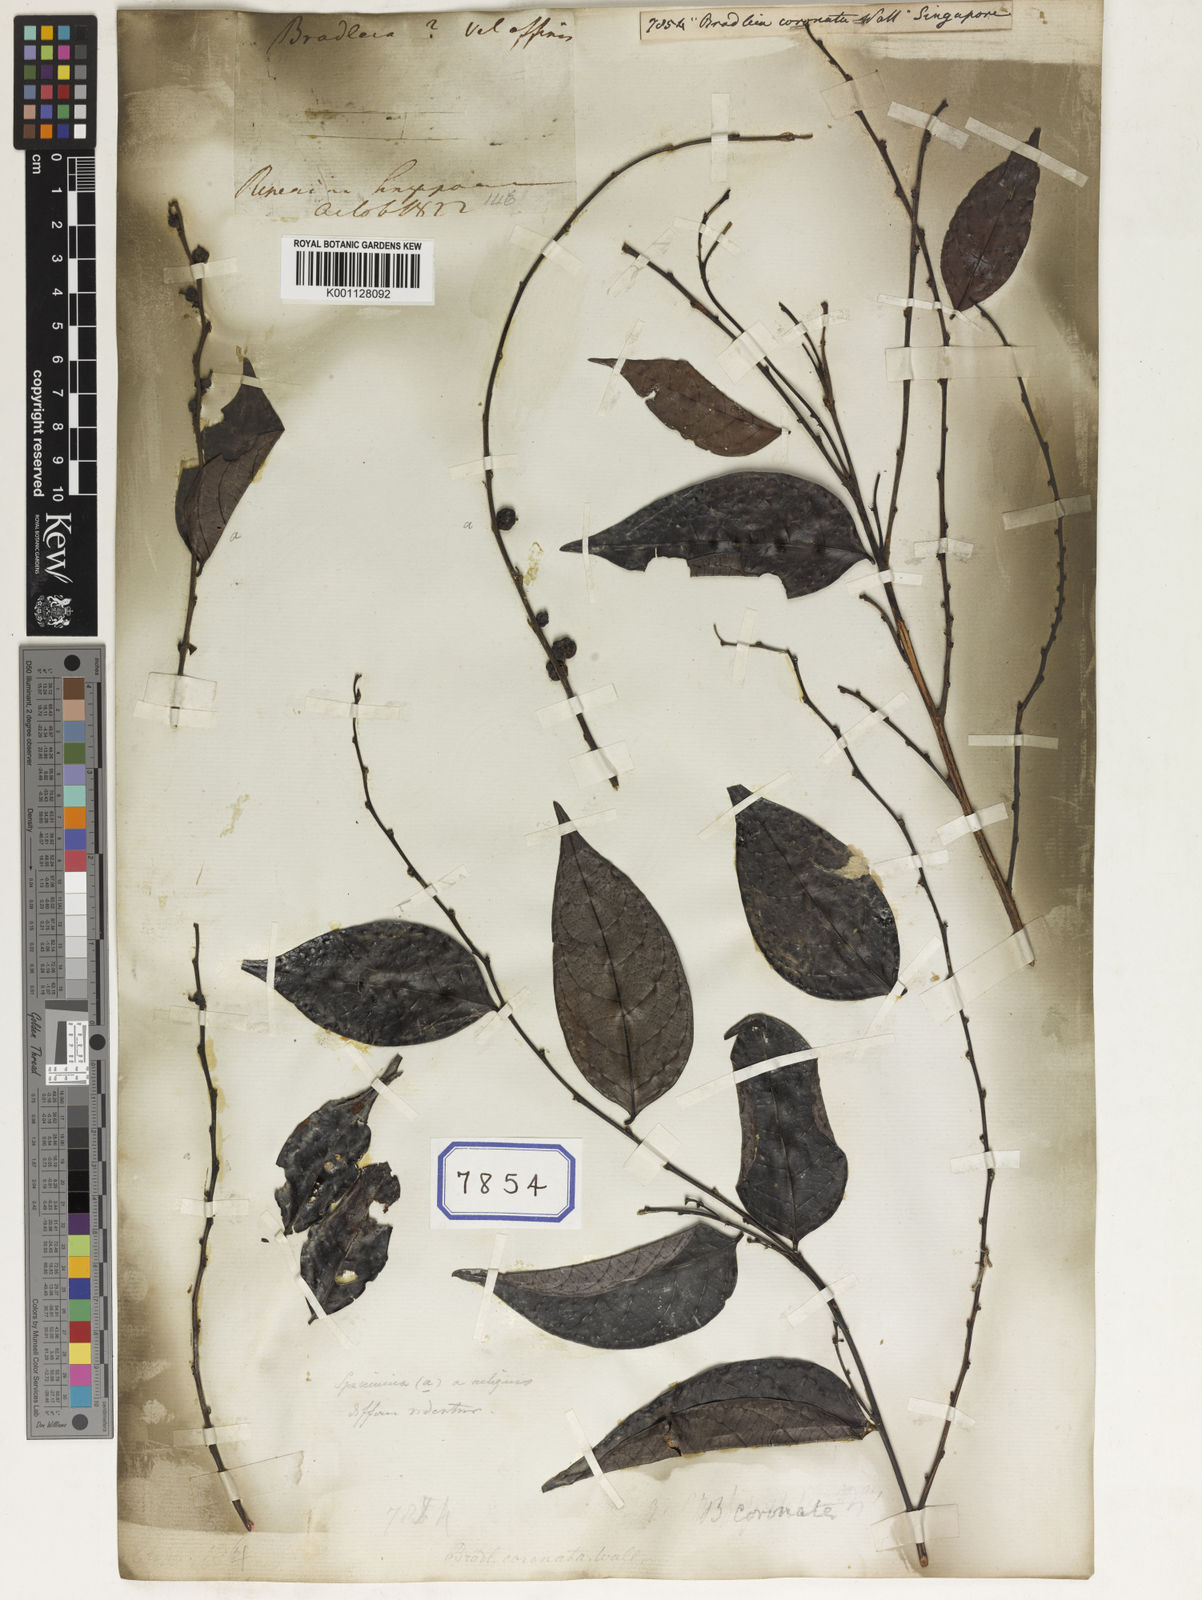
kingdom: Plantae
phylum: Tracheophyta
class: Magnoliopsida
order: Malpighiales
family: Euphorbiaceae
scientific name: Euphorbiaceae
